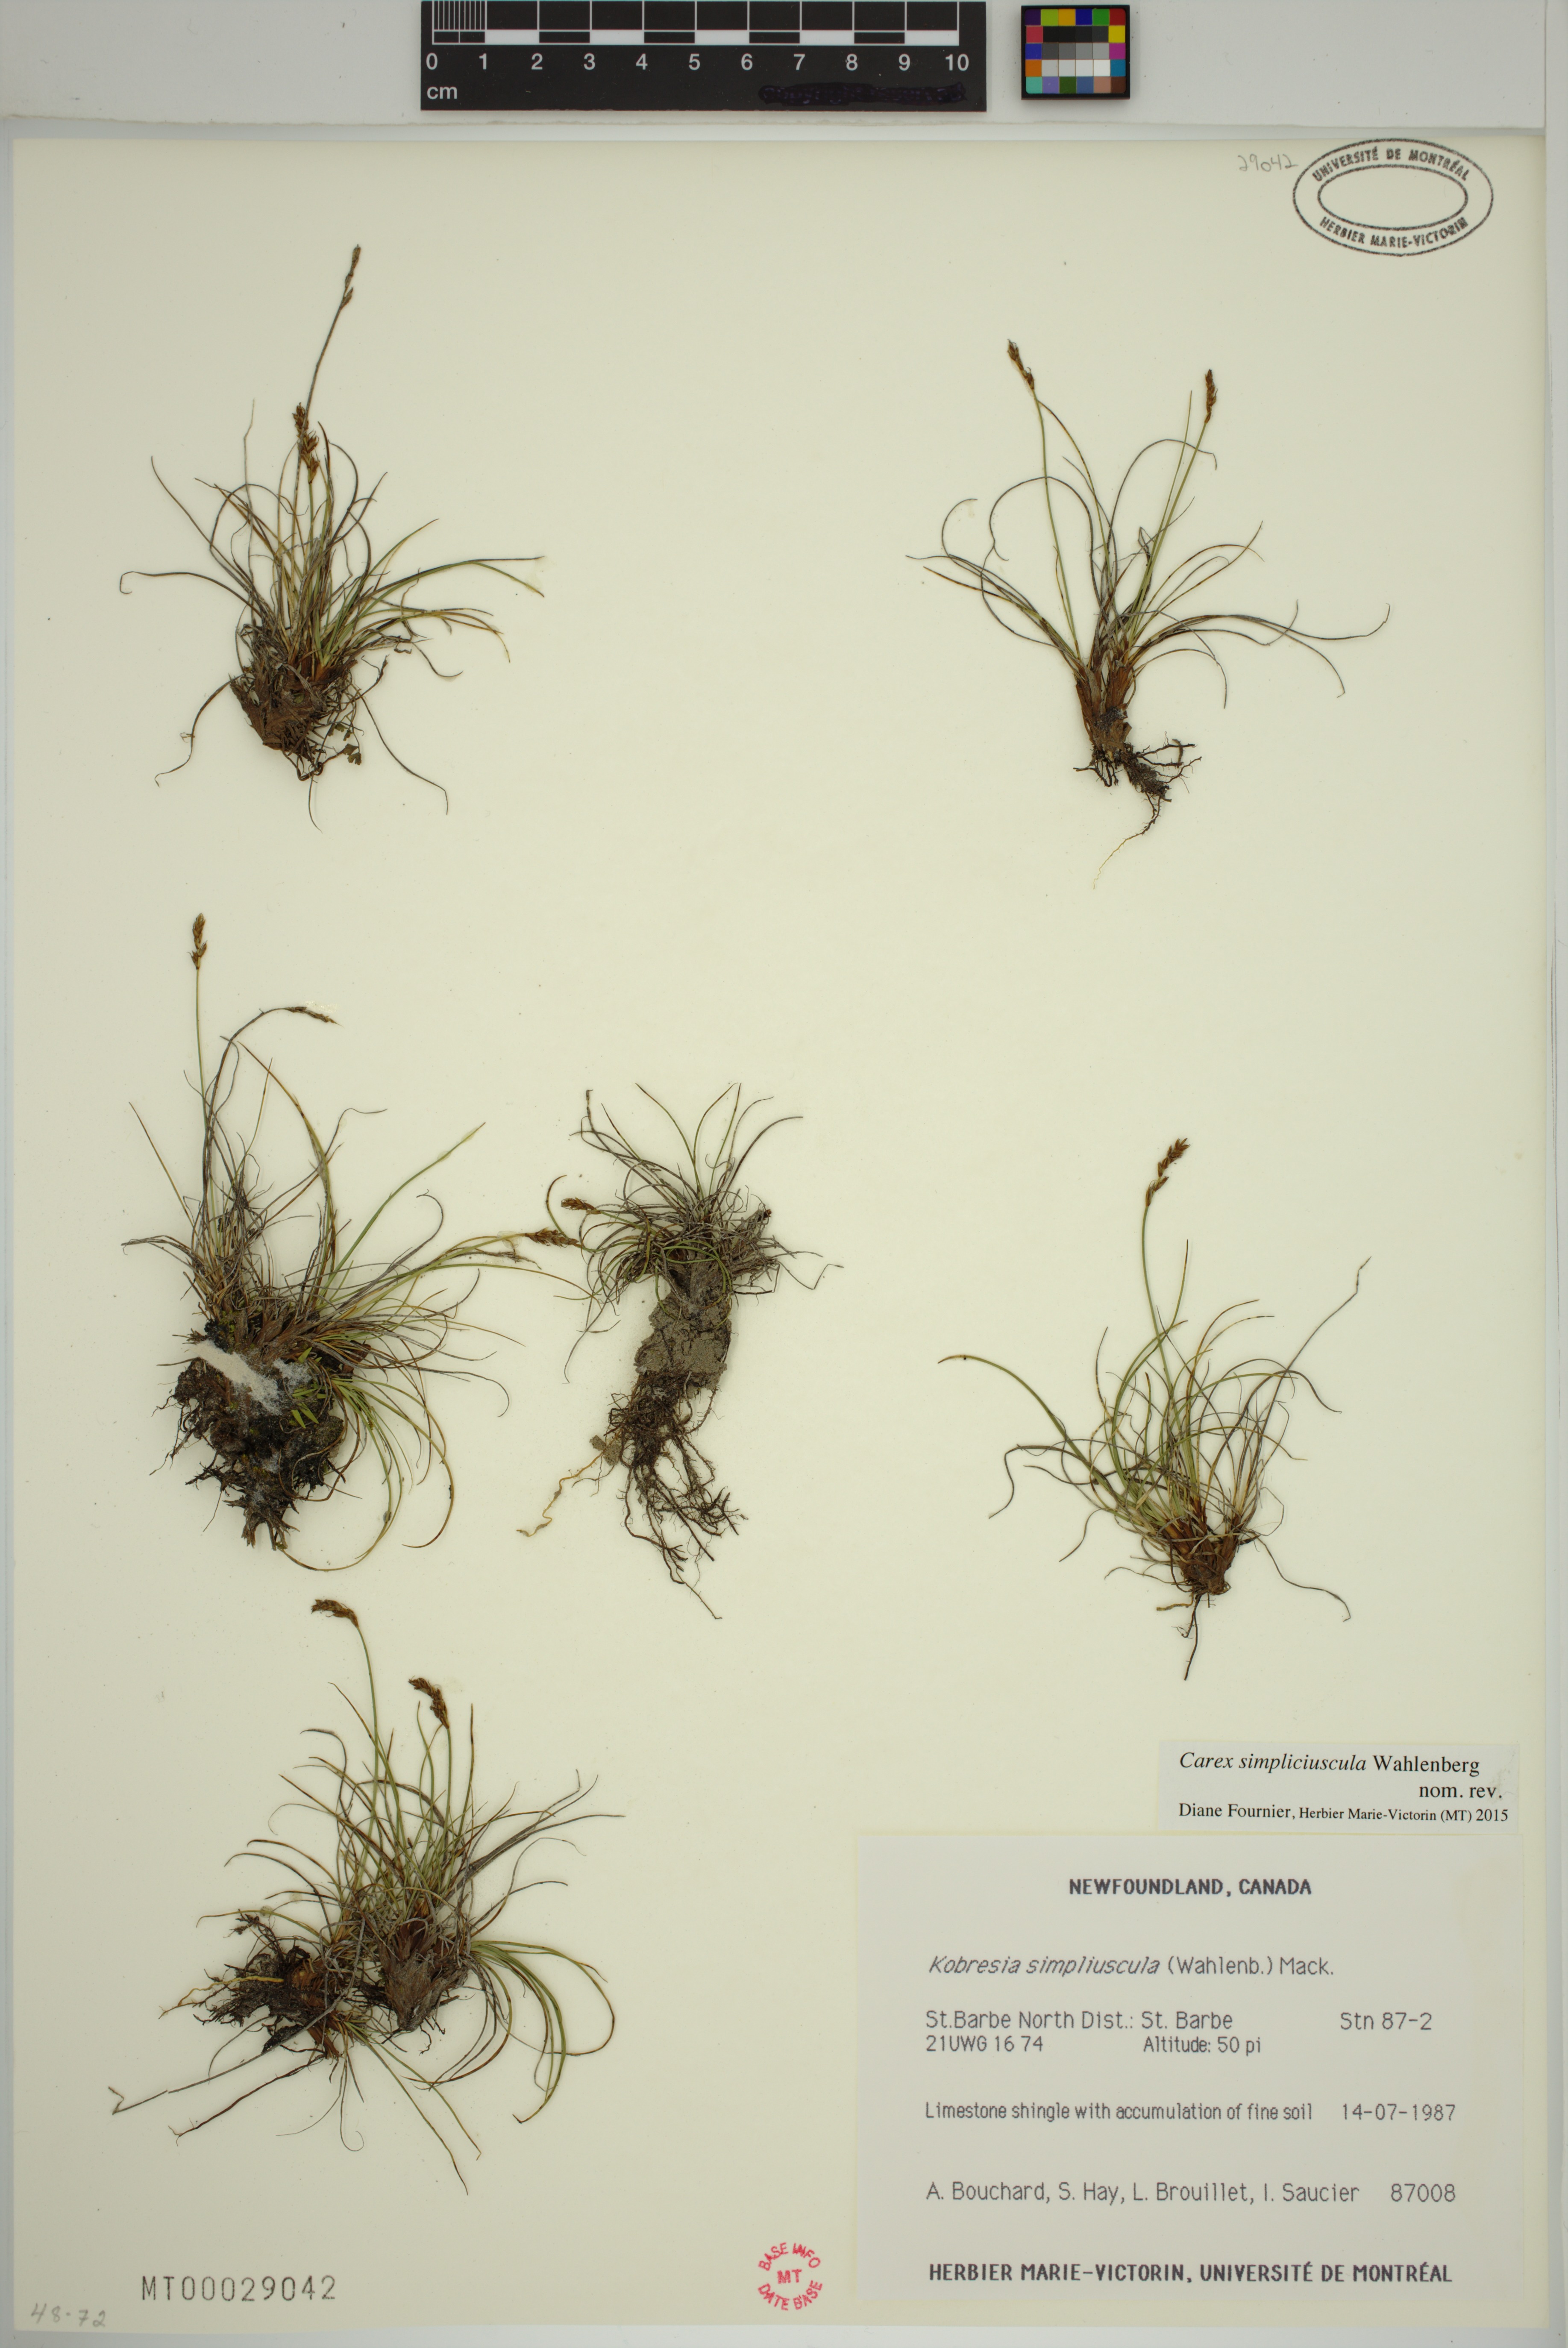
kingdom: Plantae
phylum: Tracheophyta
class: Liliopsida
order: Poales
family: Cyperaceae
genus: Carex
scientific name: Carex simpliciuscula
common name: Simple bog sedge
